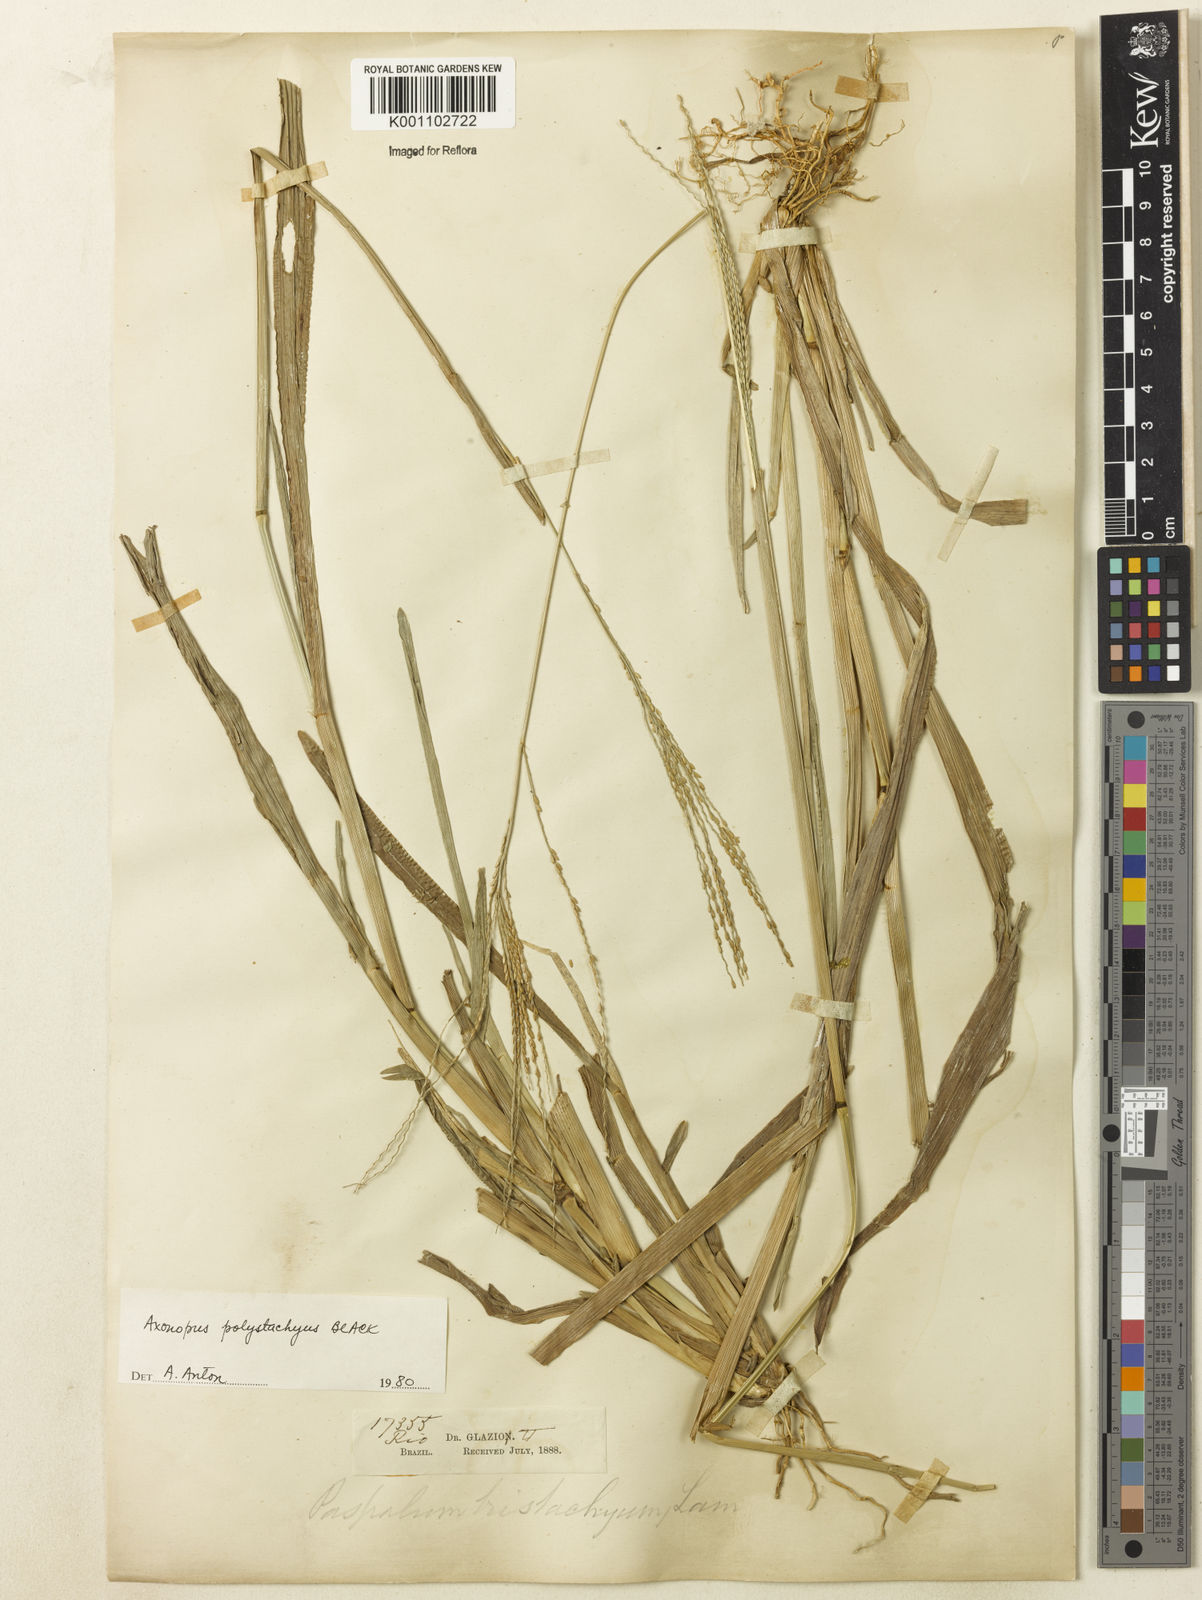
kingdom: Plantae
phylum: Tracheophyta
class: Liliopsida
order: Poales
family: Poaceae
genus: Axonopus
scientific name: Axonopus polystachyus
